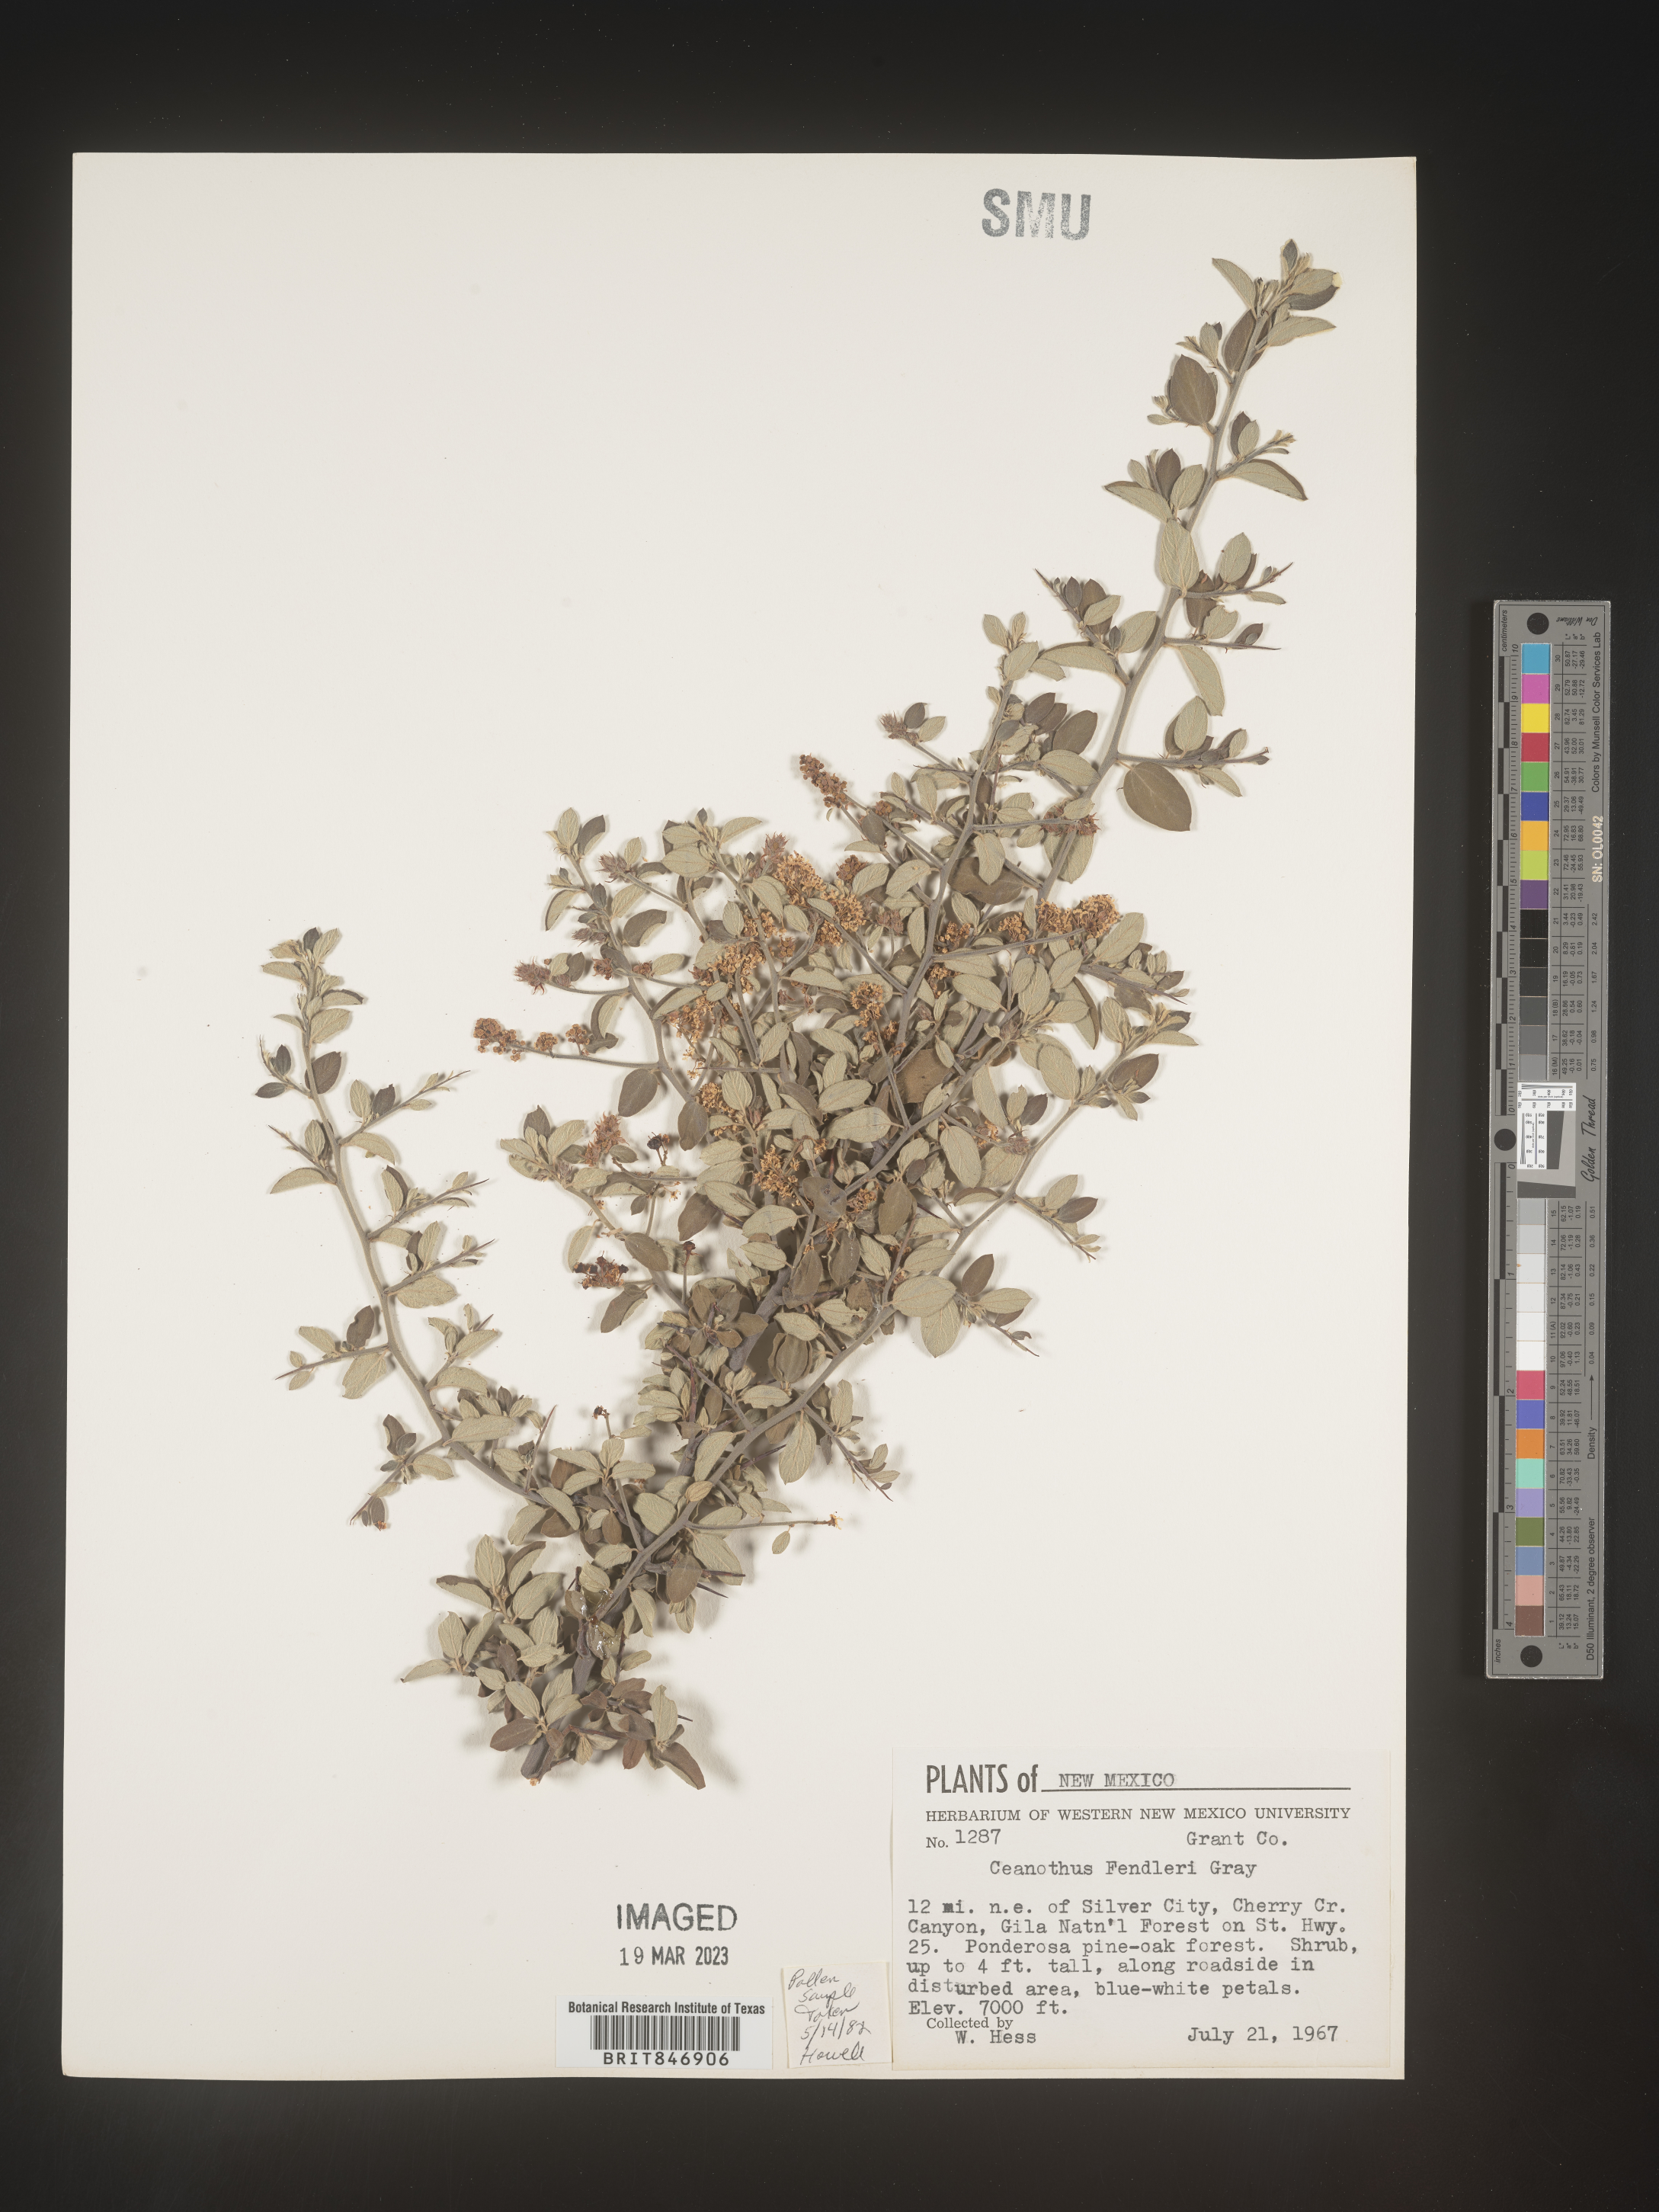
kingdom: Plantae
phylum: Tracheophyta
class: Magnoliopsida
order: Rosales
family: Rhamnaceae
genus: Ceanothus
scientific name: Ceanothus fendleri
